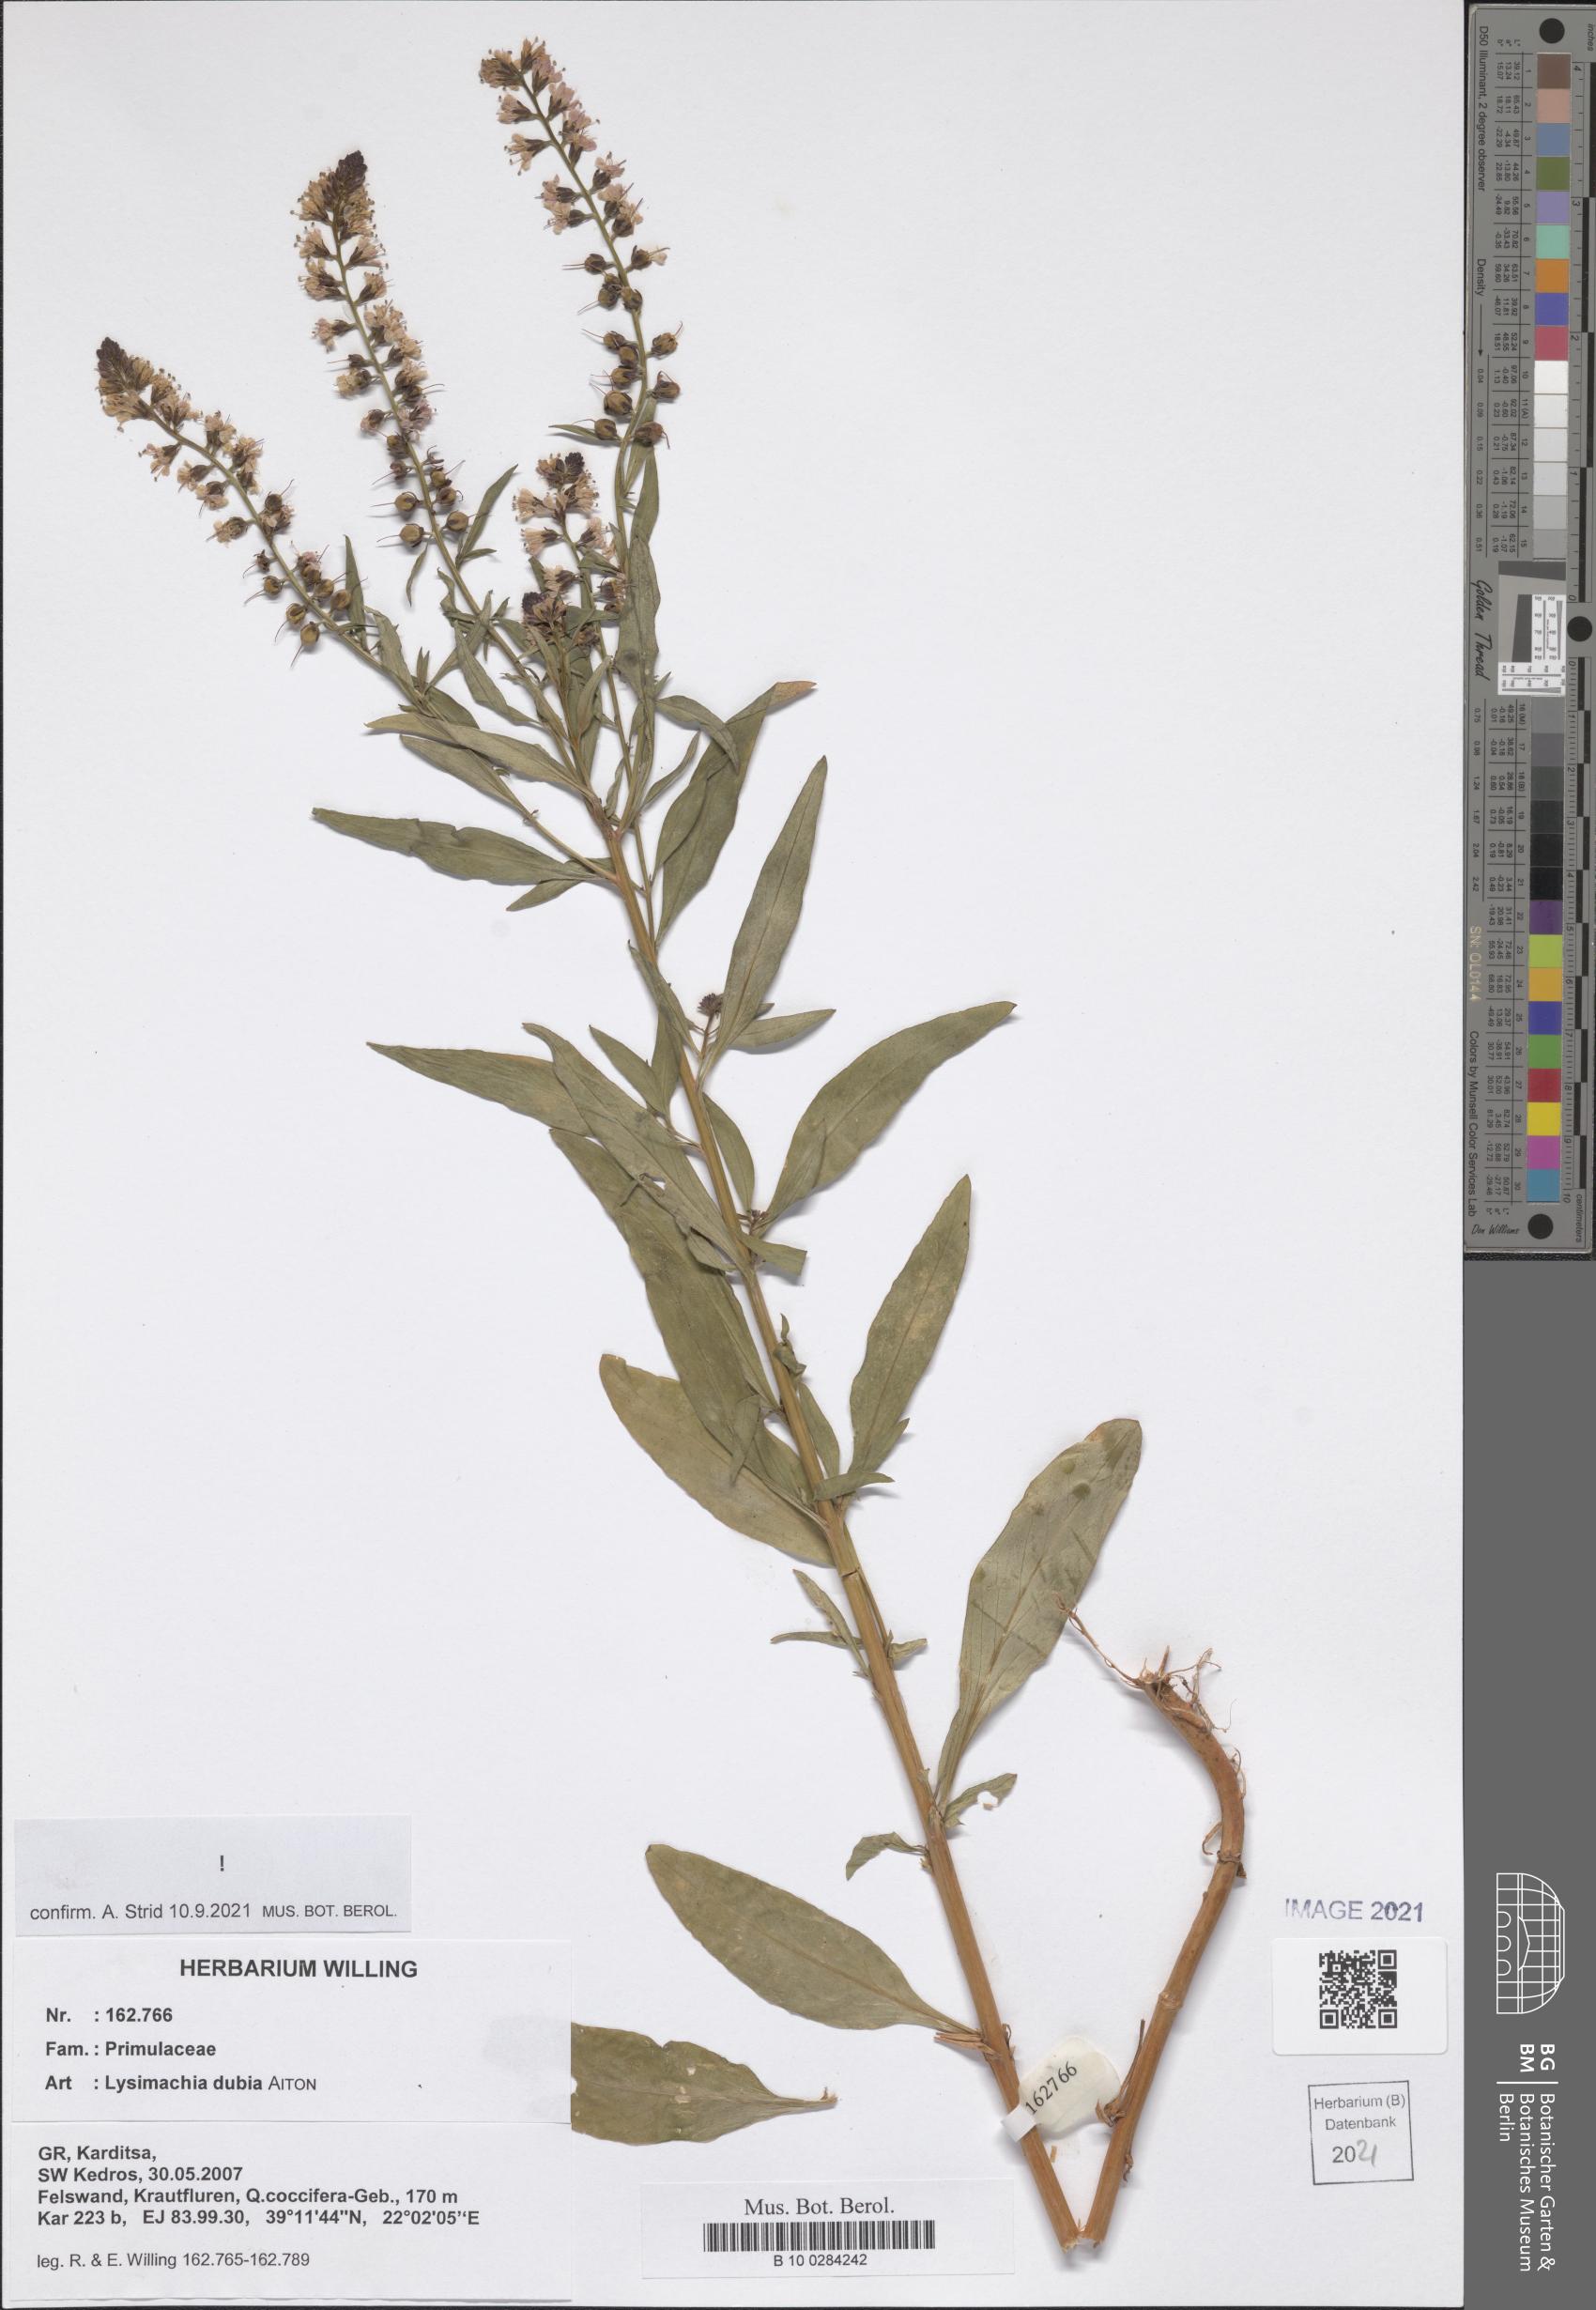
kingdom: Plantae
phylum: Tracheophyta
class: Magnoliopsida
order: Ericales
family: Primulaceae
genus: Lysimachia
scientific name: Lysimachia lanceolata
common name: Lance-leaved loosestrife
